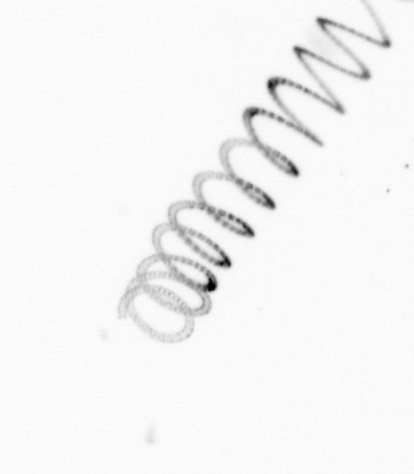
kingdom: Chromista
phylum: Ochrophyta
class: Bacillariophyceae
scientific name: Bacillariophyceae
